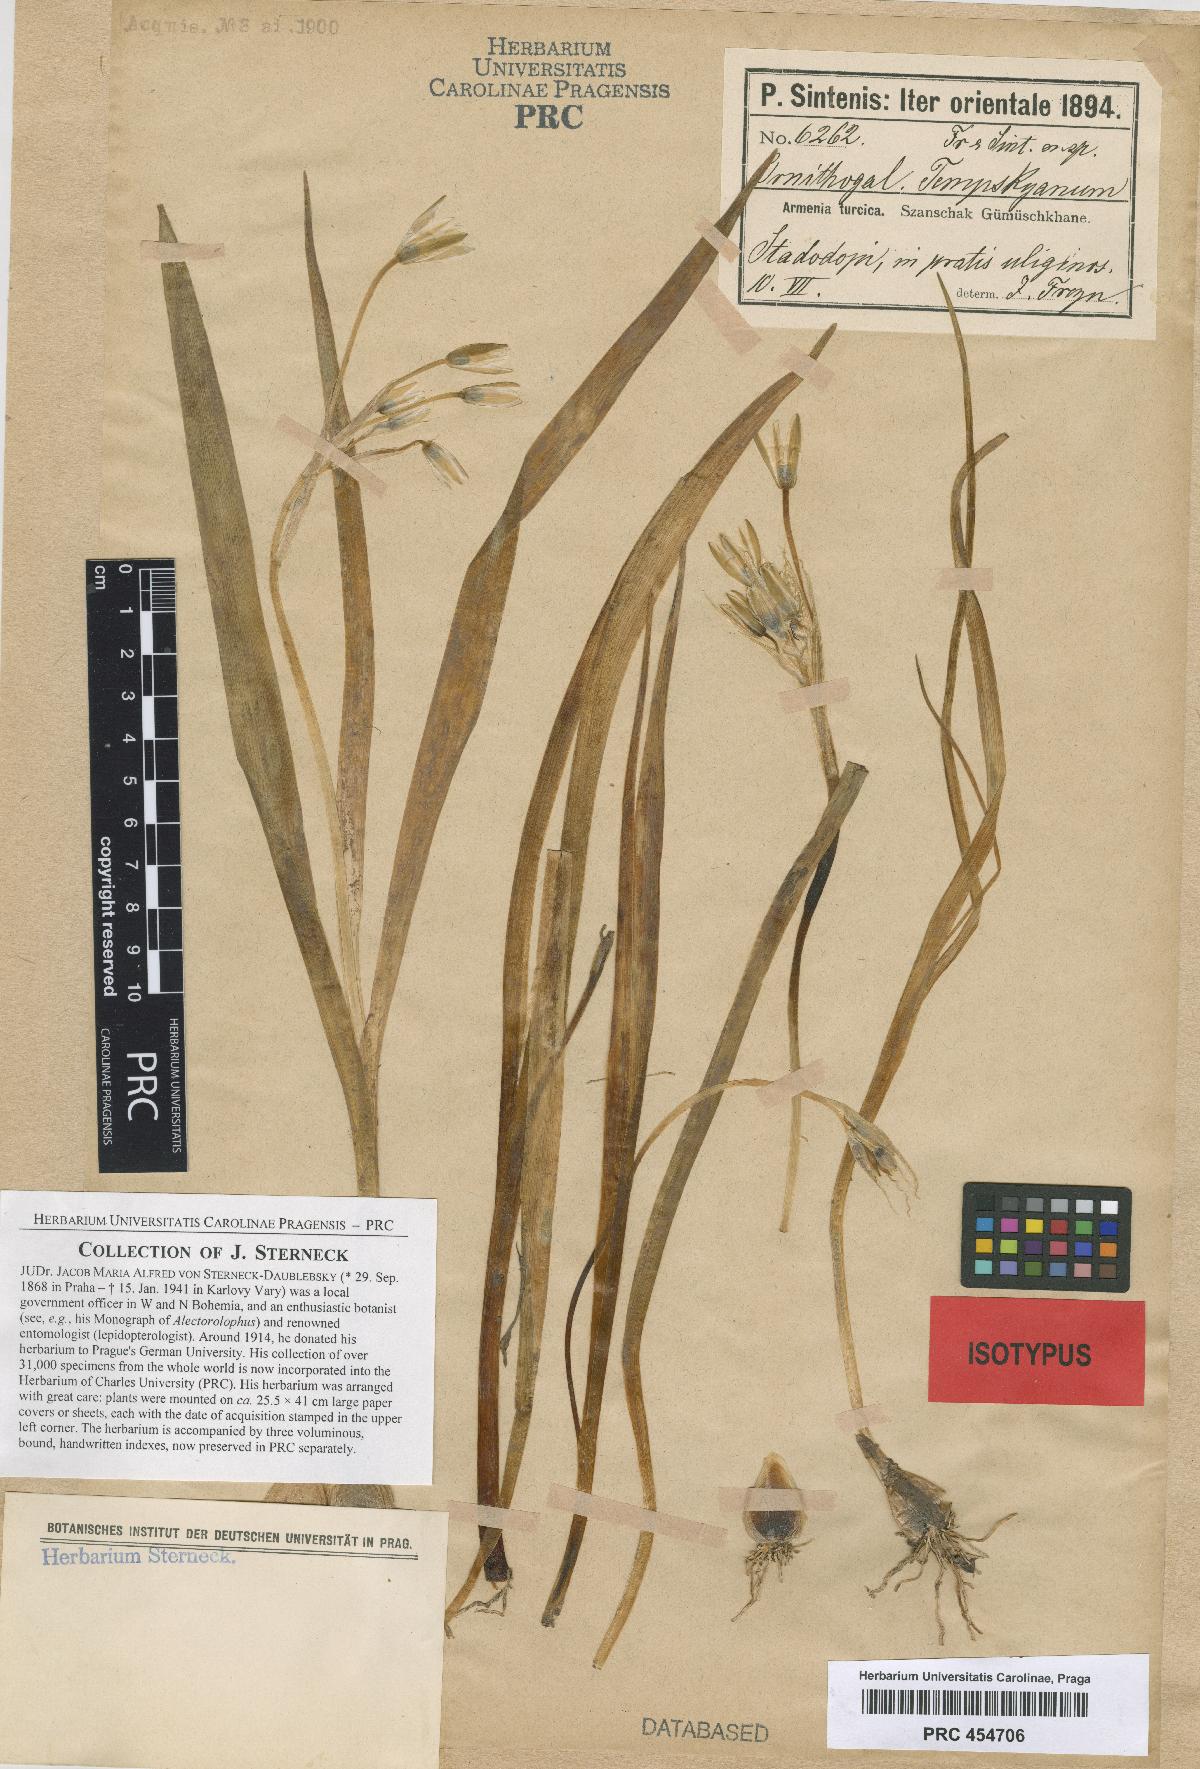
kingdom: Plantae
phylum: Tracheophyta
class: Liliopsida
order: Asparagales
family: Asparagaceae
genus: Ornithogalum
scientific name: Ornithogalum graciliflorum
